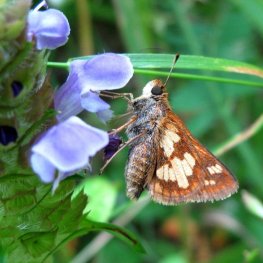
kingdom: Animalia
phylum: Arthropoda
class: Insecta
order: Lepidoptera
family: Hesperiidae
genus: Polites
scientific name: Polites coras
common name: Peck's Skipper
